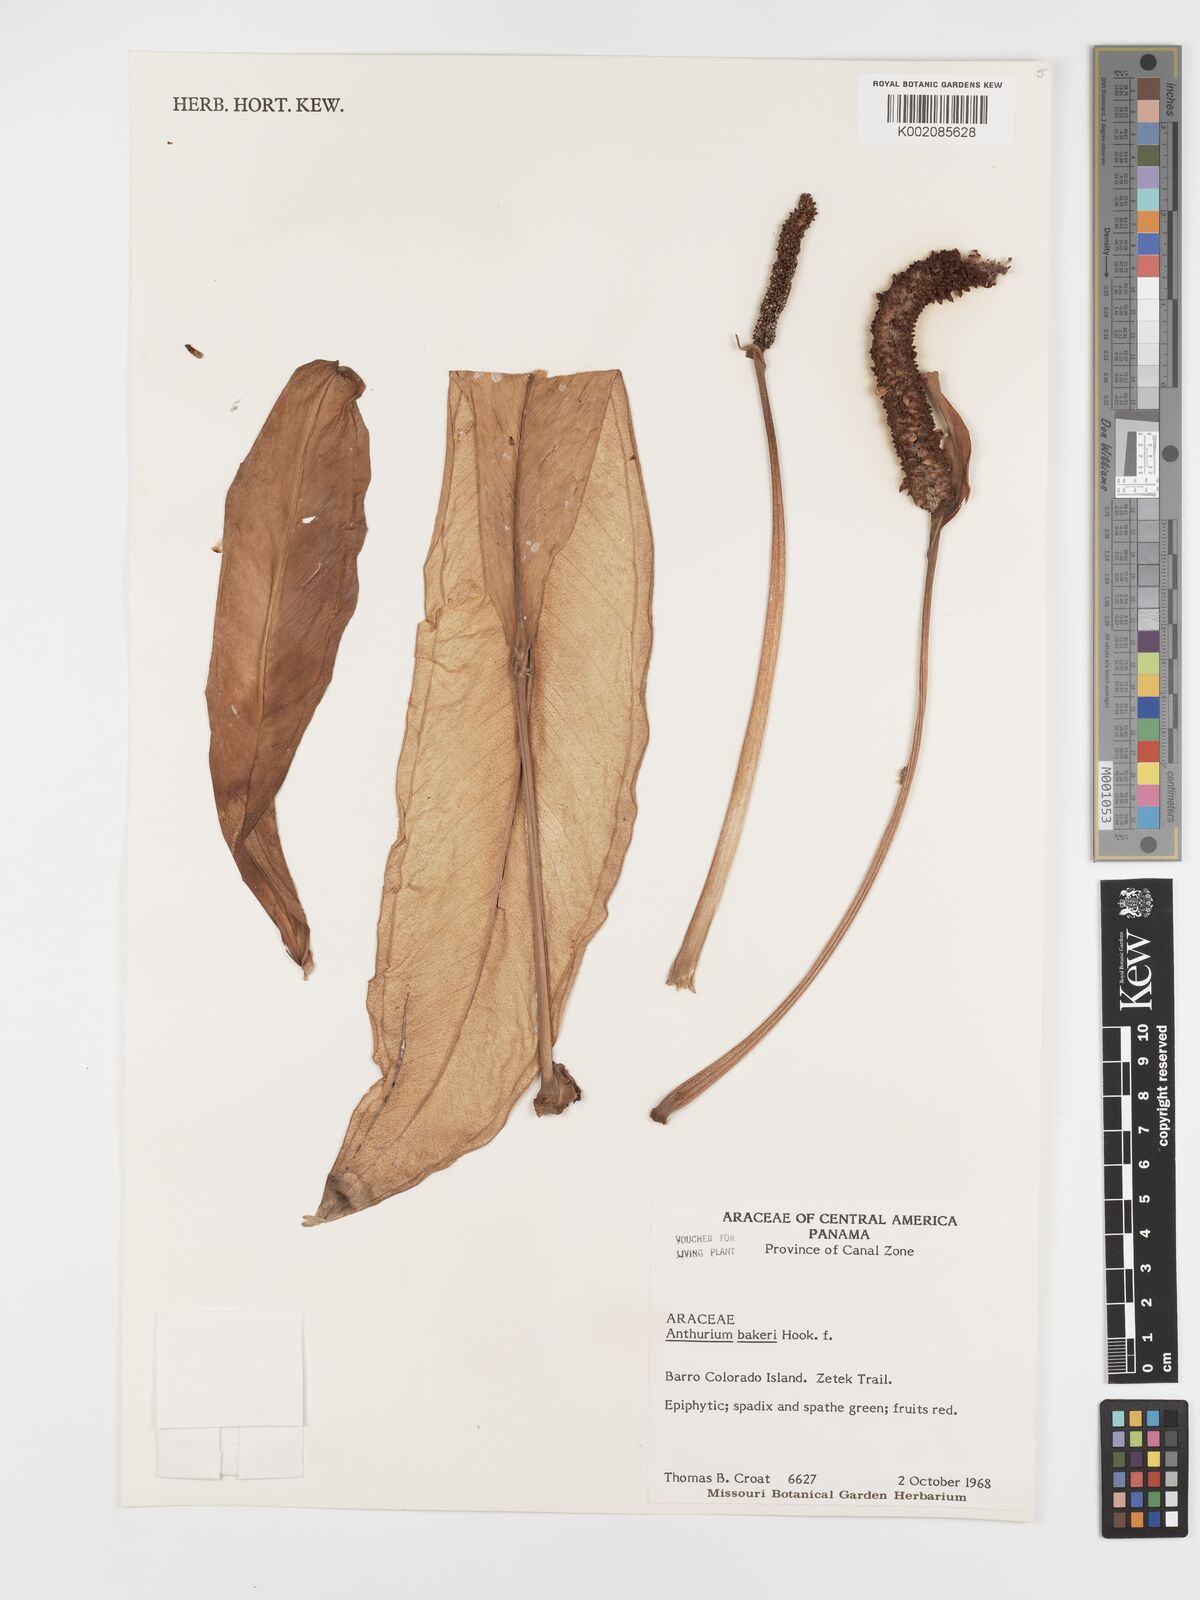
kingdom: Plantae
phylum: Tracheophyta
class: Liliopsida
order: Alismatales
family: Araceae
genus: Anthurium
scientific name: Anthurium bakeri
